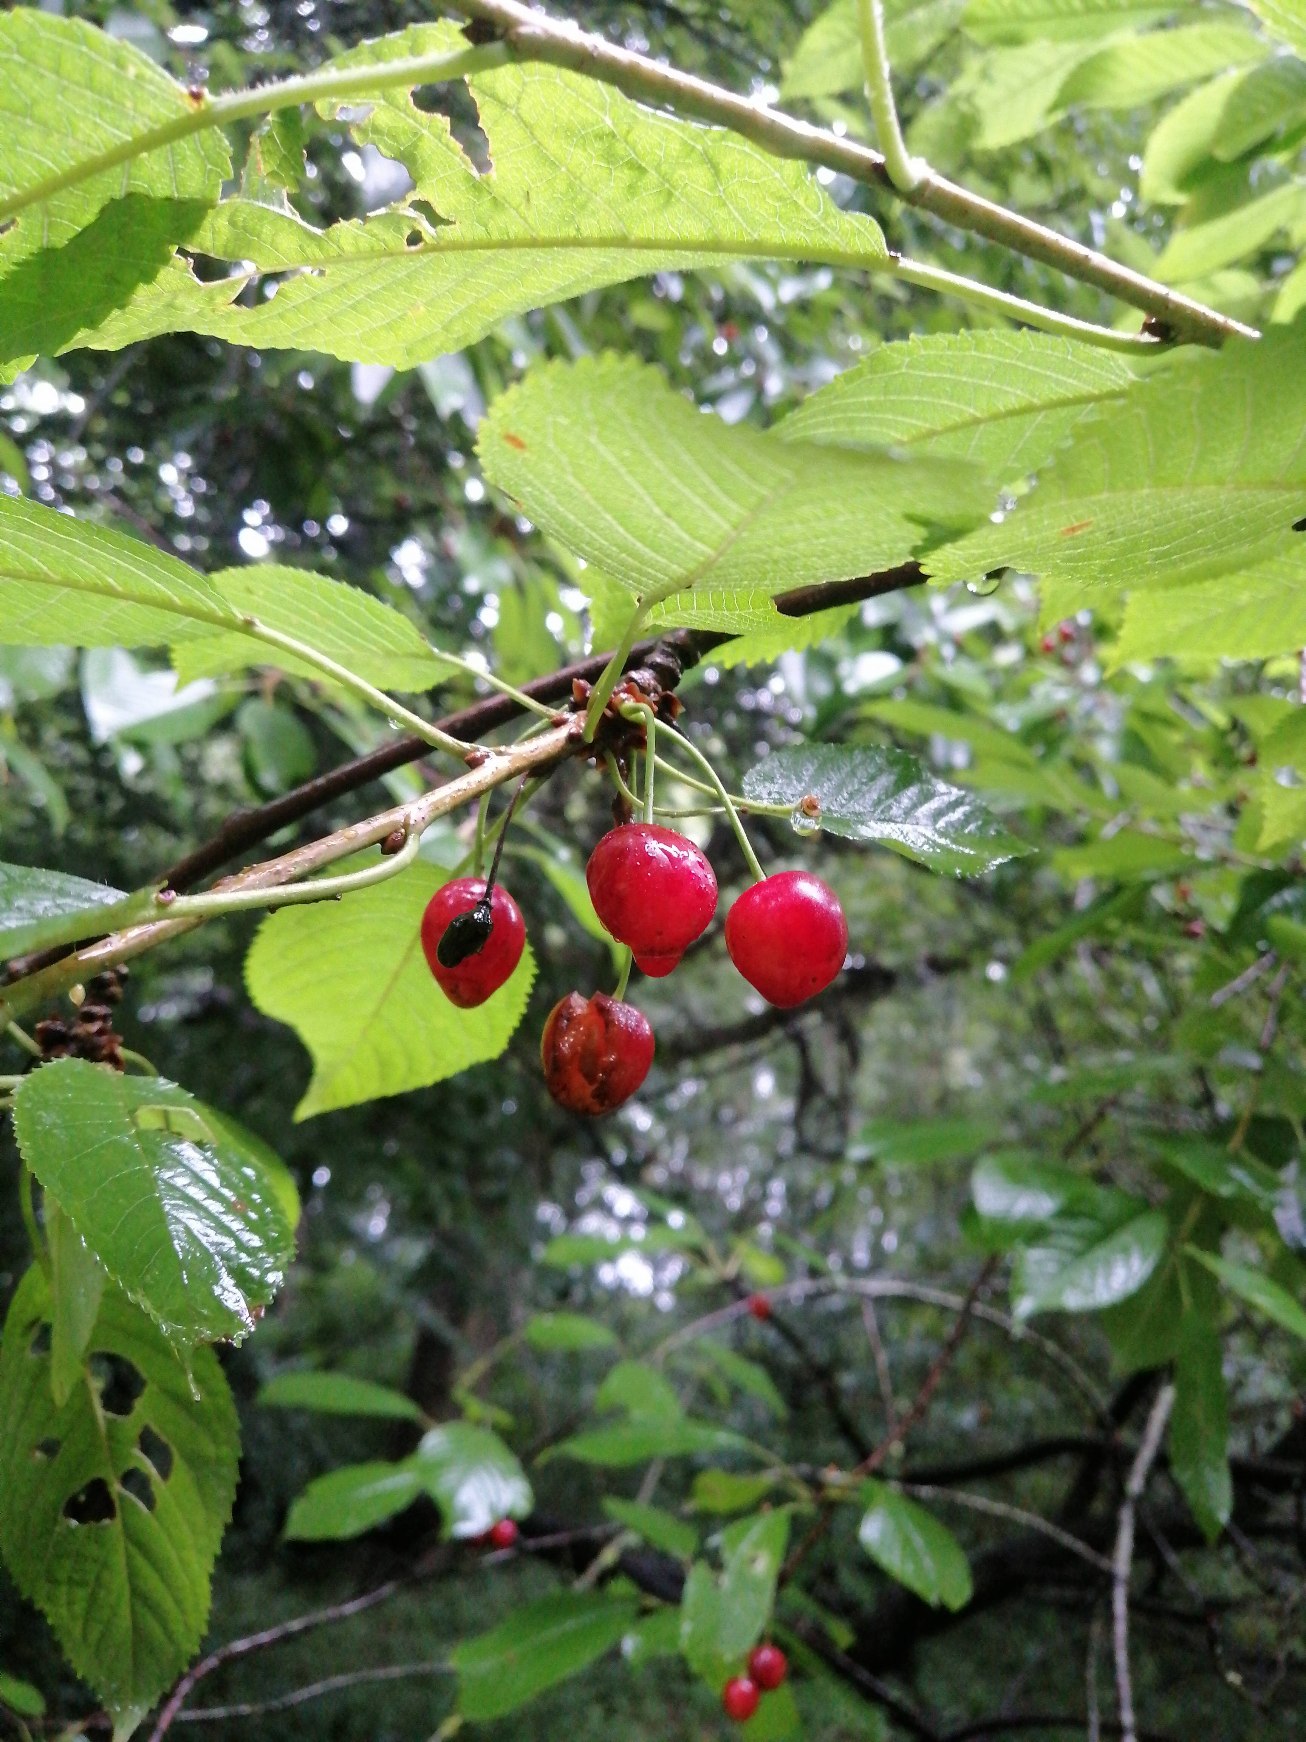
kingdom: Plantae
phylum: Tracheophyta
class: Magnoliopsida
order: Rosales
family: Rosaceae
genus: Prunus
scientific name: Prunus avium
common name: Fugle-kirsebær
